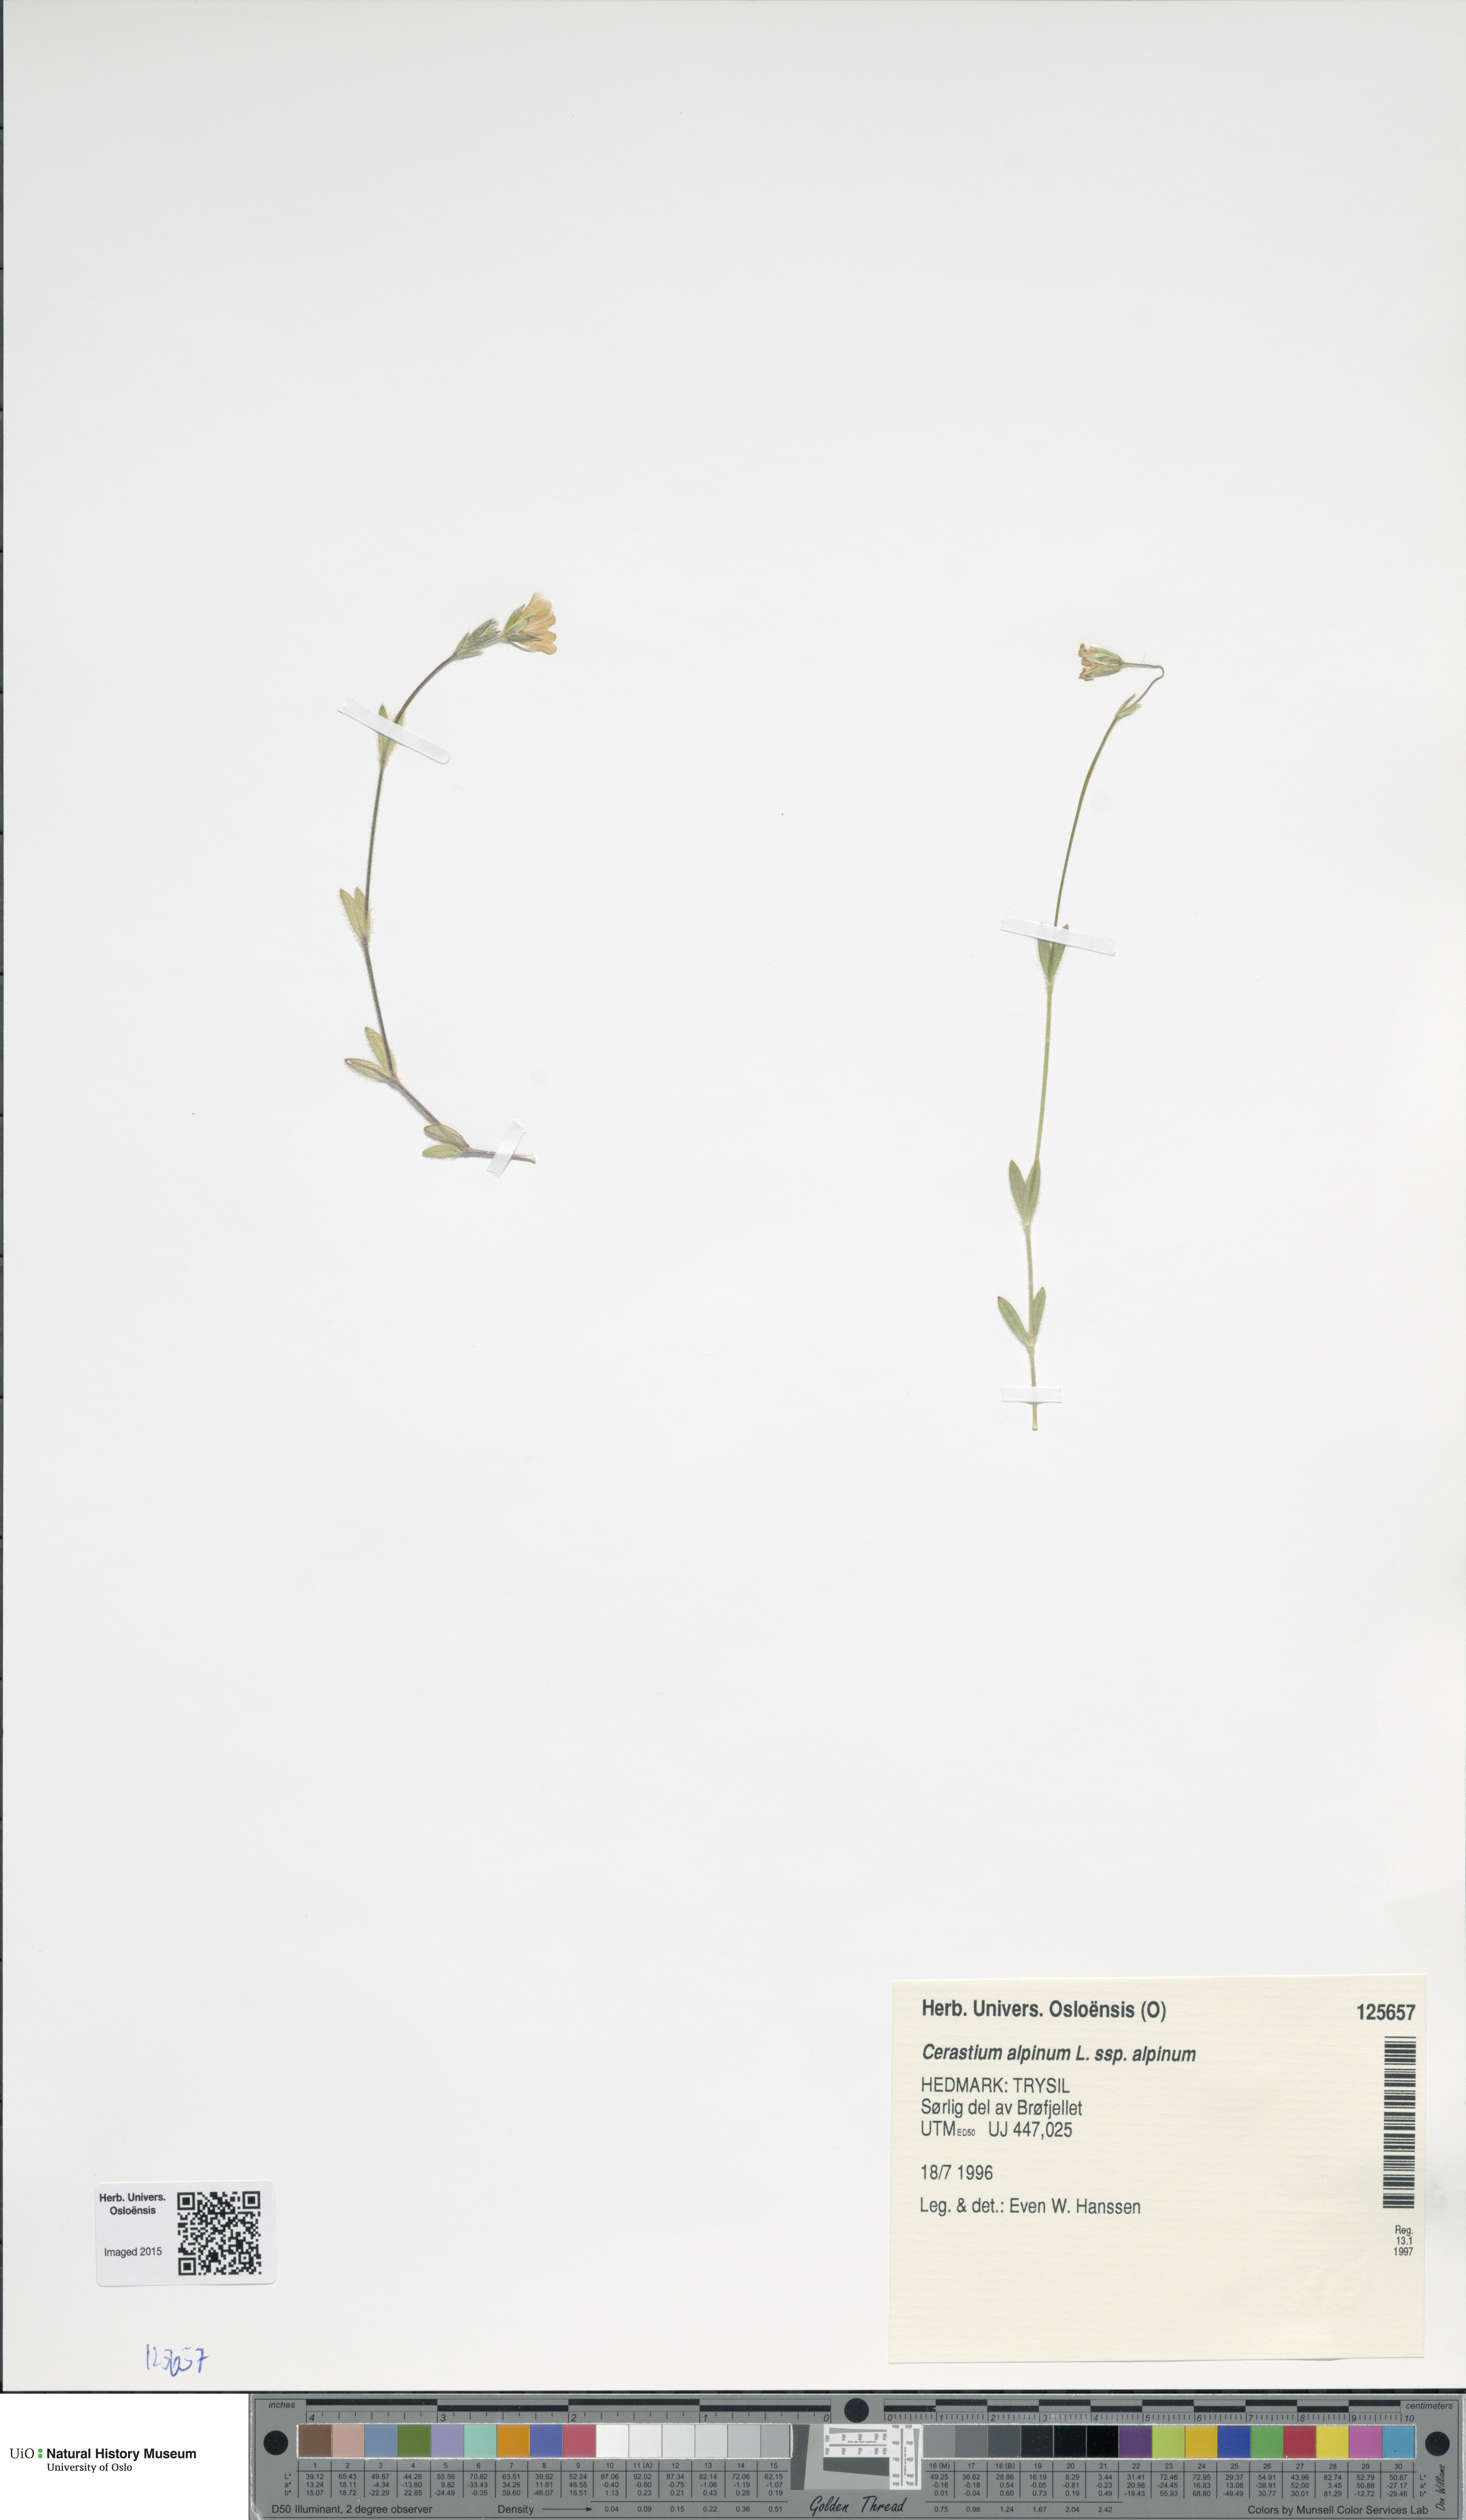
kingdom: Plantae
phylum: Tracheophyta
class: Magnoliopsida
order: Caryophyllales
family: Caryophyllaceae
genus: Cerastium
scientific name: Cerastium alpinum
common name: Alpine mouse-ear
